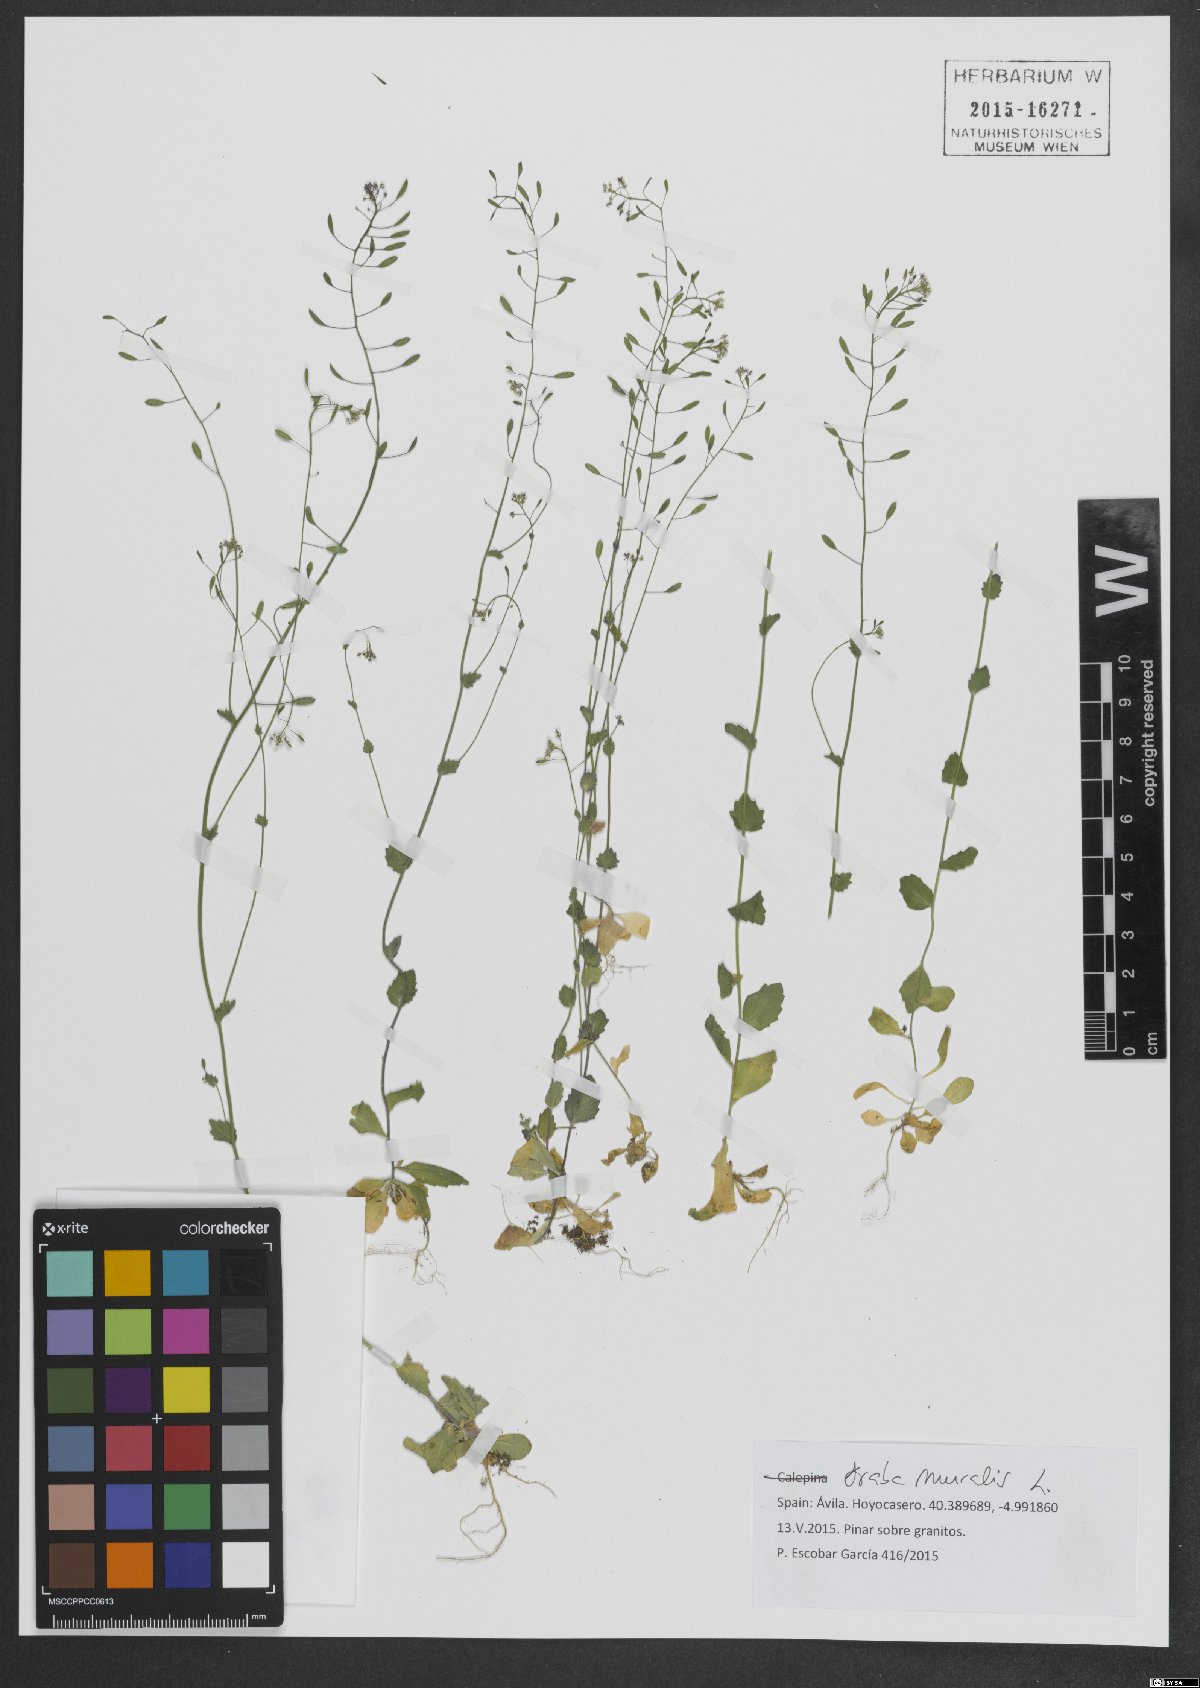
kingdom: Plantae
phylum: Tracheophyta
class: Magnoliopsida
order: Brassicales
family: Brassicaceae
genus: Drabella
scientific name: Drabella muralis
